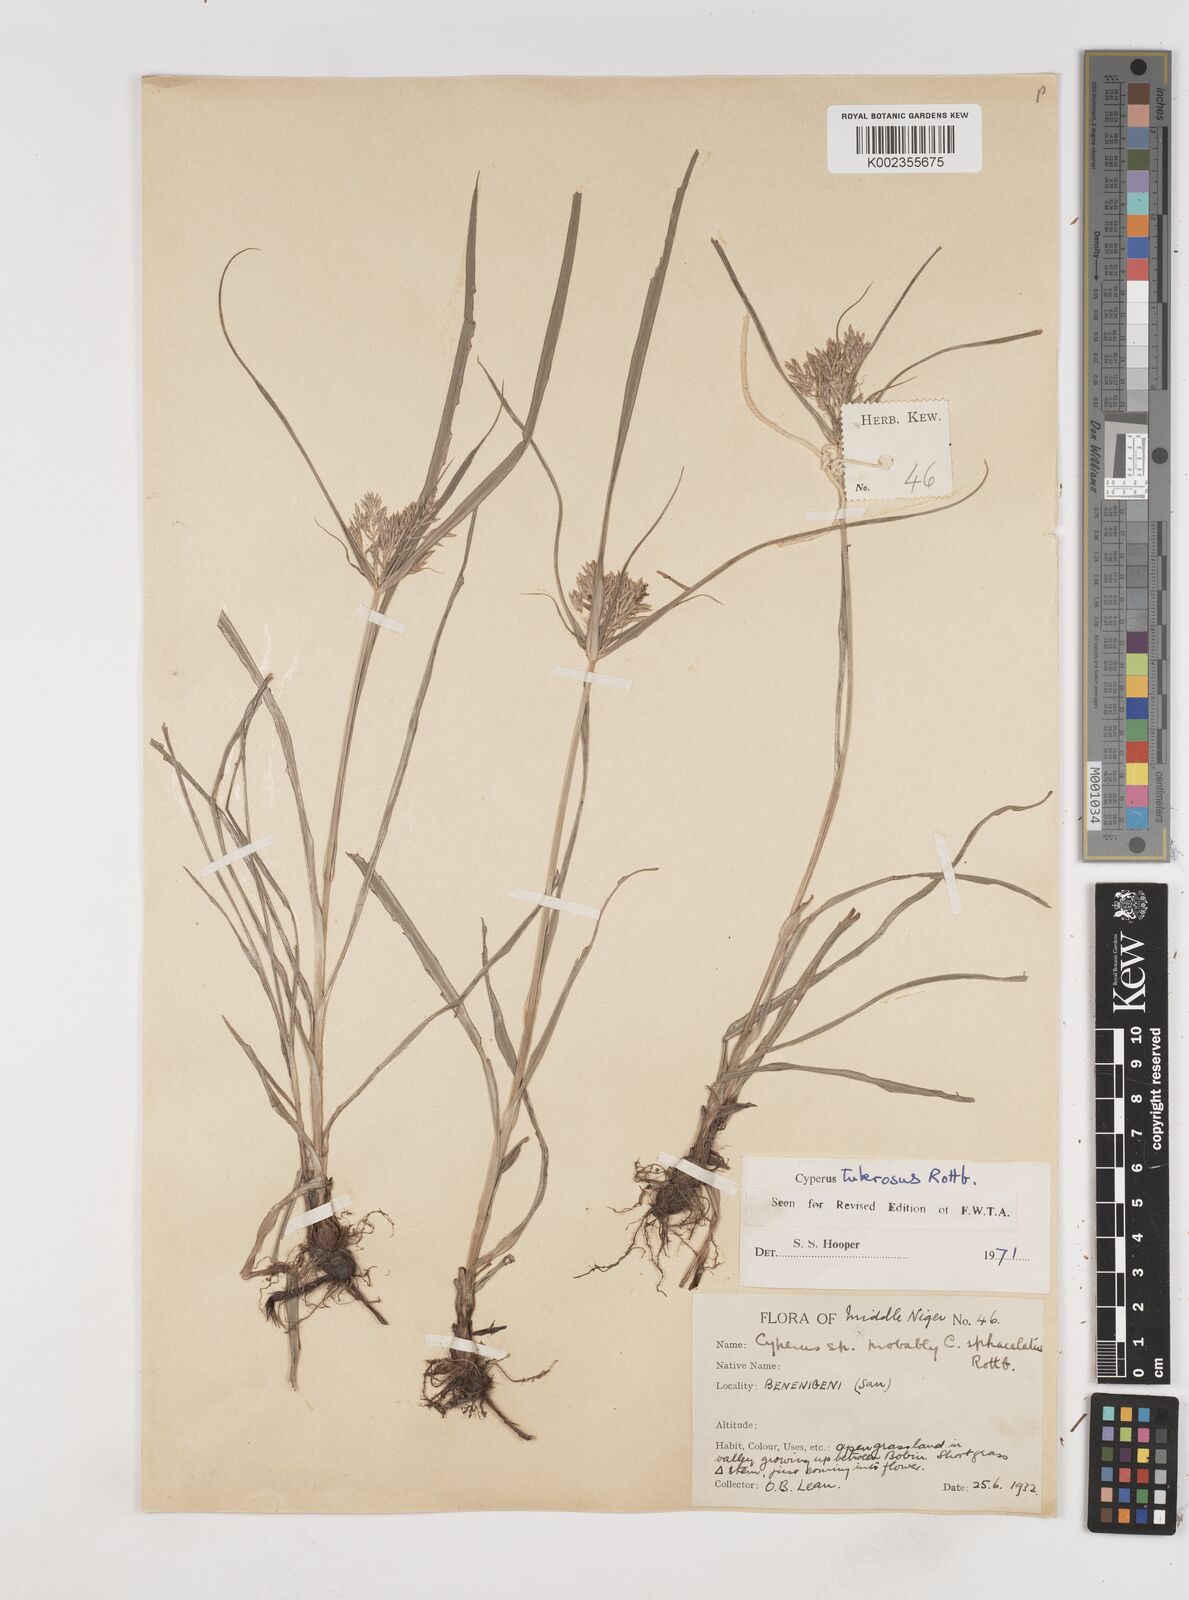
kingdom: Plantae
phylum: Tracheophyta
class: Liliopsida
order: Poales
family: Cyperaceae
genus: Cyperus
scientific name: Cyperus tuberosus
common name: Nut grass
